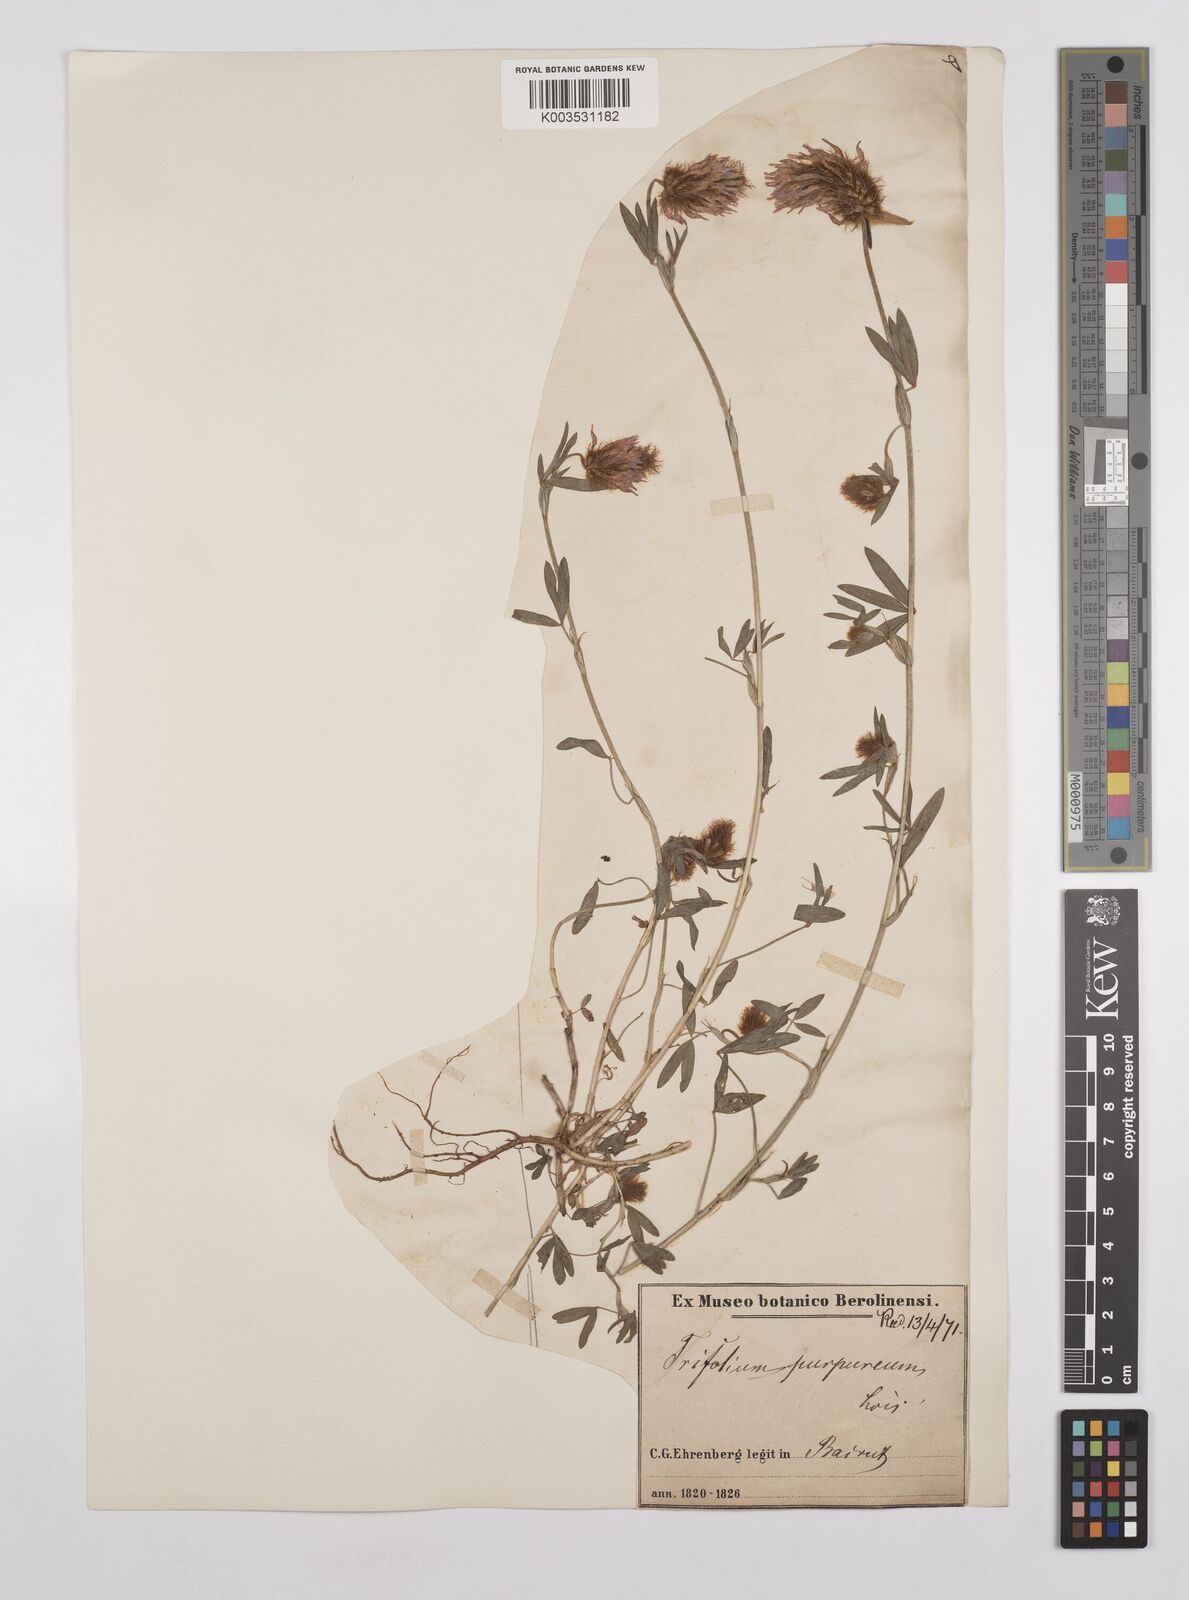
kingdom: Plantae
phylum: Tracheophyta
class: Magnoliopsida
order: Fabales
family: Fabaceae
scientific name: Fabaceae
